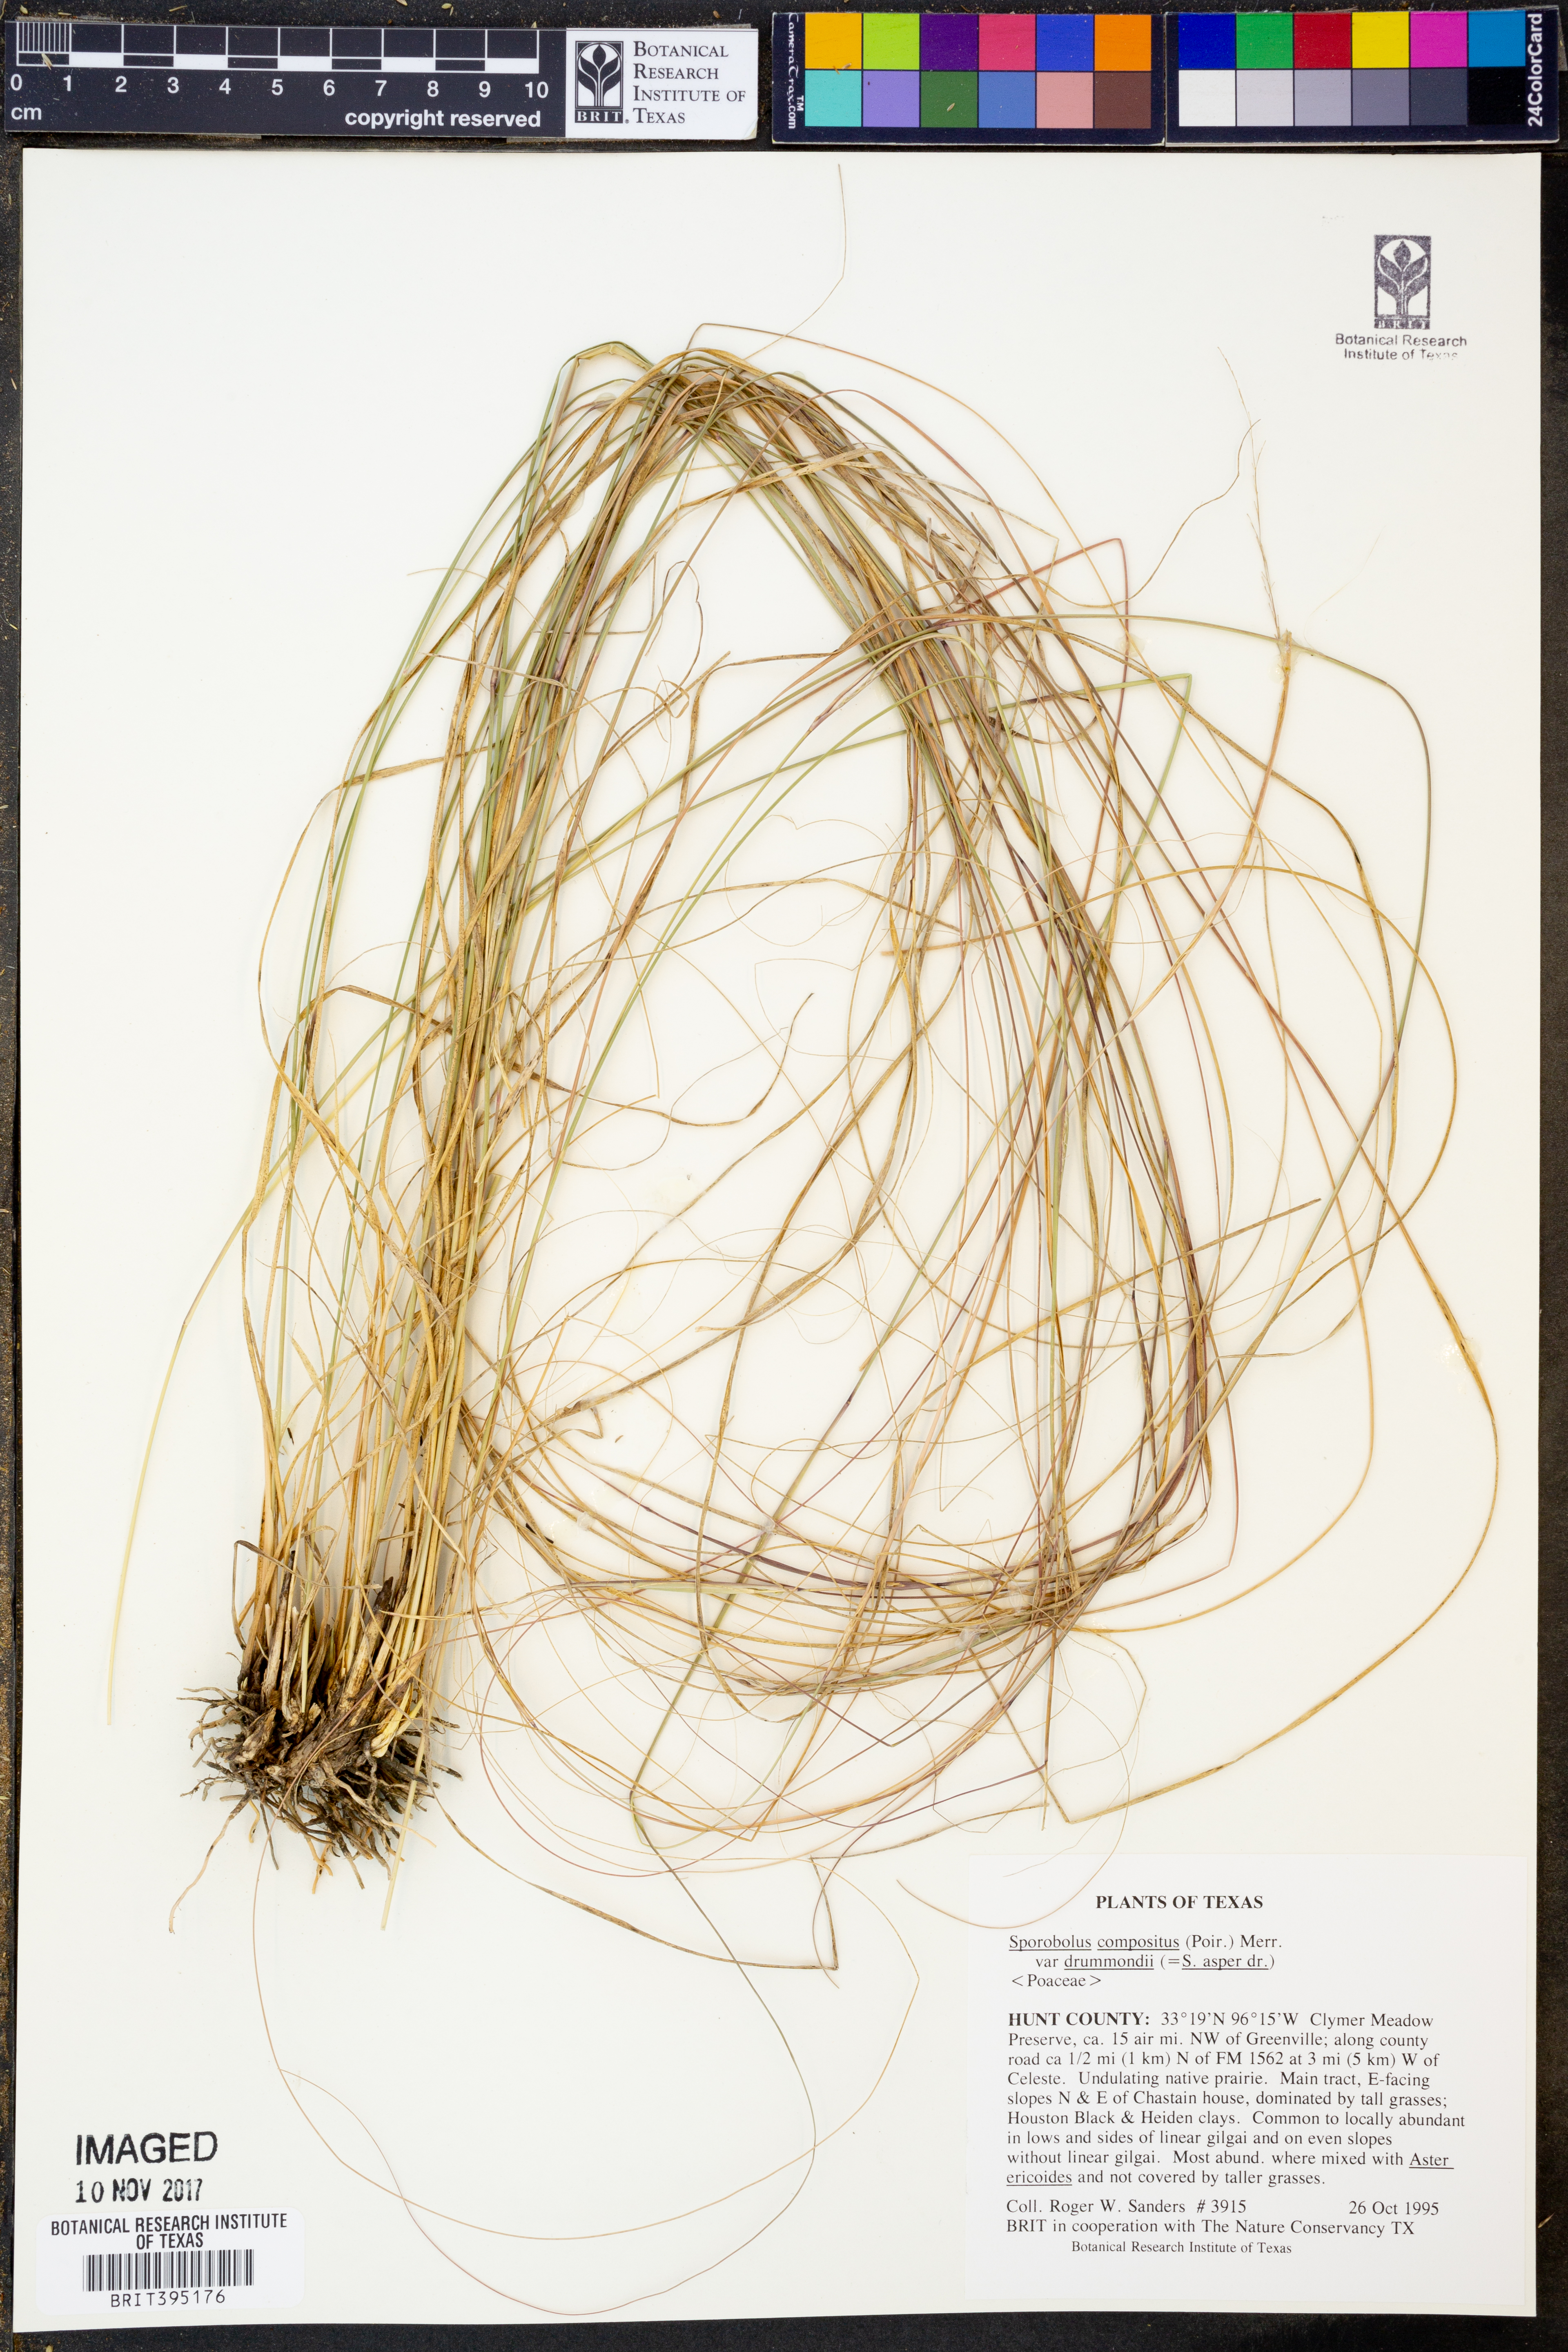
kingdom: Plantae
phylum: Tracheophyta
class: Liliopsida
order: Poales
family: Poaceae
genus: Sporobolus
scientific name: Sporobolus compositus
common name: Rough dropseed
